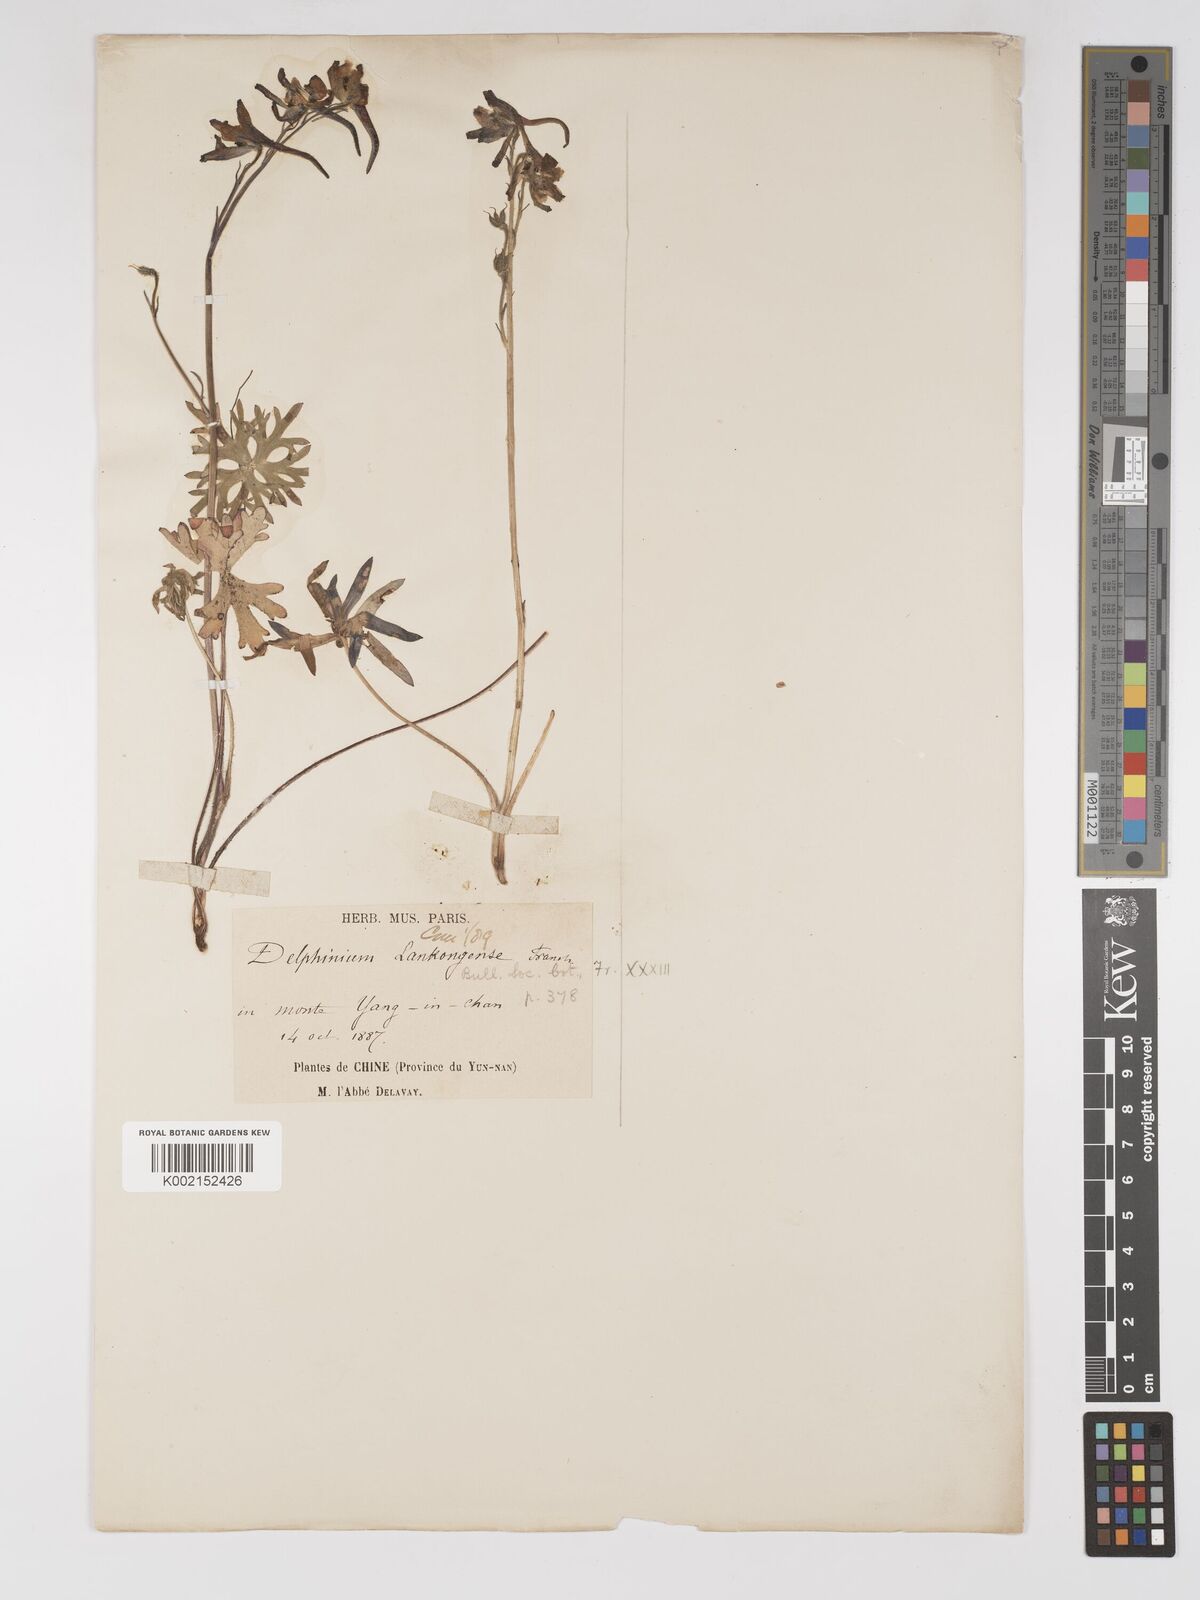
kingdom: Plantae
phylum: Tracheophyta
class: Magnoliopsida
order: Ranunculales
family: Ranunculaceae
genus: Delphinium
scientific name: Delphinium pycnocentrum
